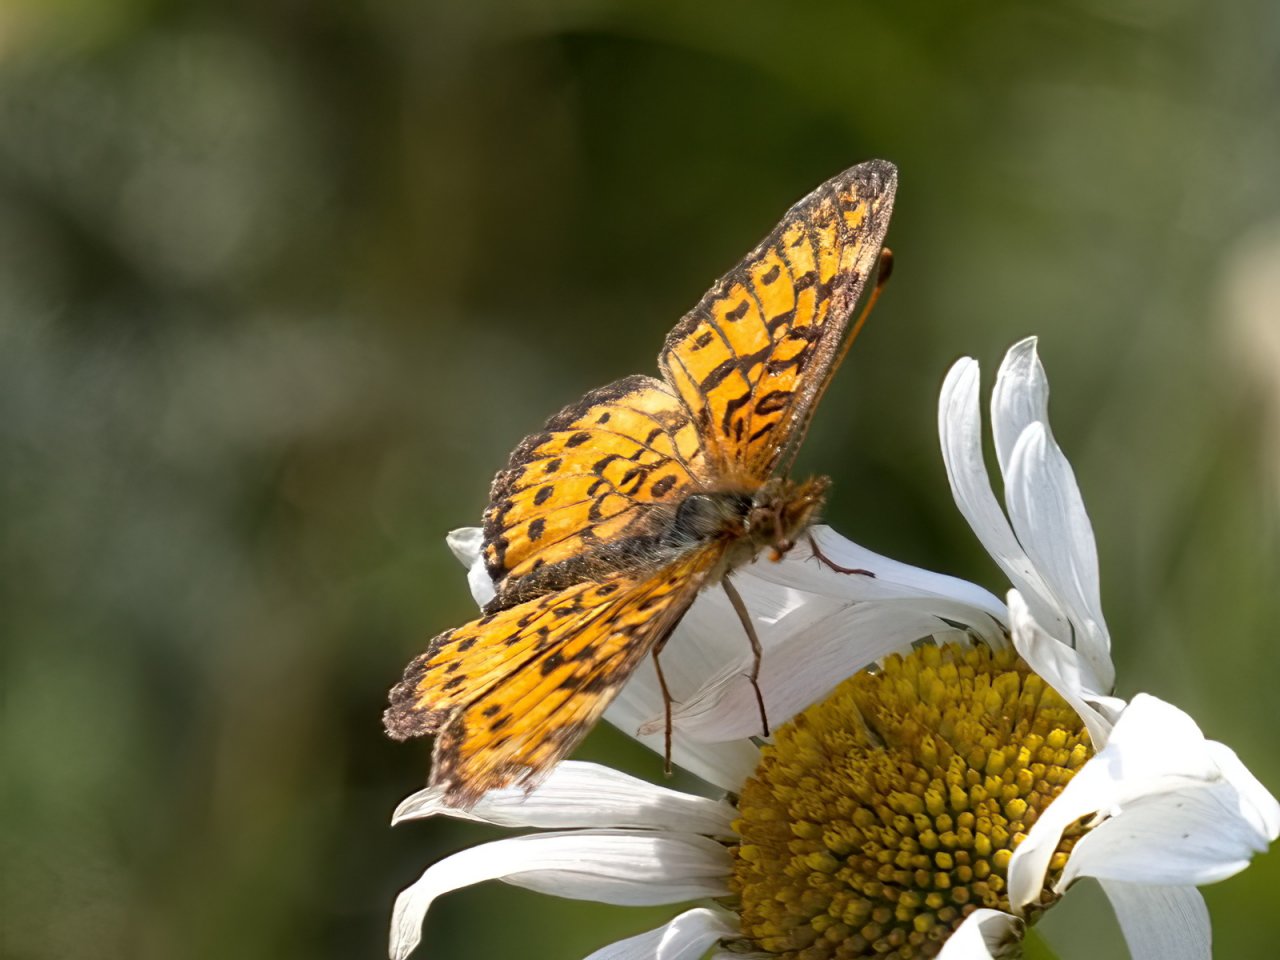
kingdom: Animalia
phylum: Arthropoda
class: Insecta
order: Lepidoptera
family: Nymphalidae
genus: Boloria
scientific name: Boloria selene
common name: Silver-bordered Fritillary
